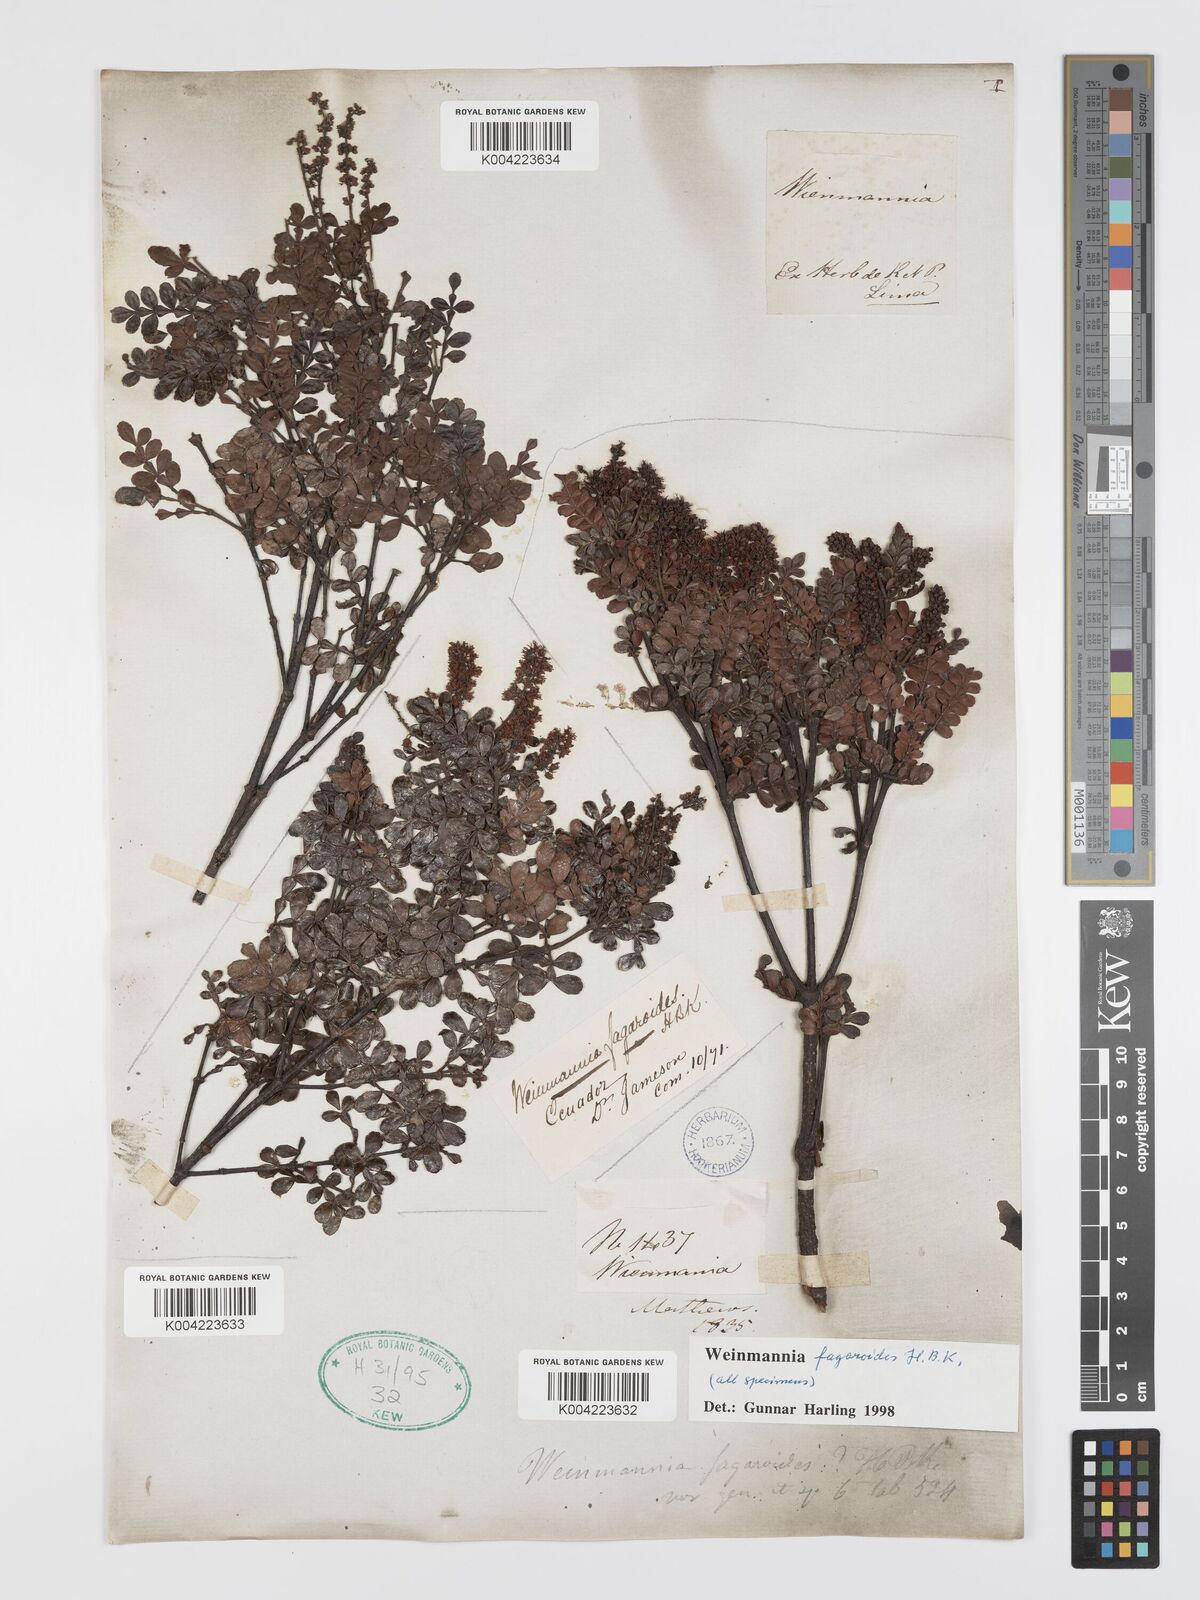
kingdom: Plantae
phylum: Tracheophyta
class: Magnoliopsida
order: Oxalidales
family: Cunoniaceae
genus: Weinmannia
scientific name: Weinmannia fagaroides
